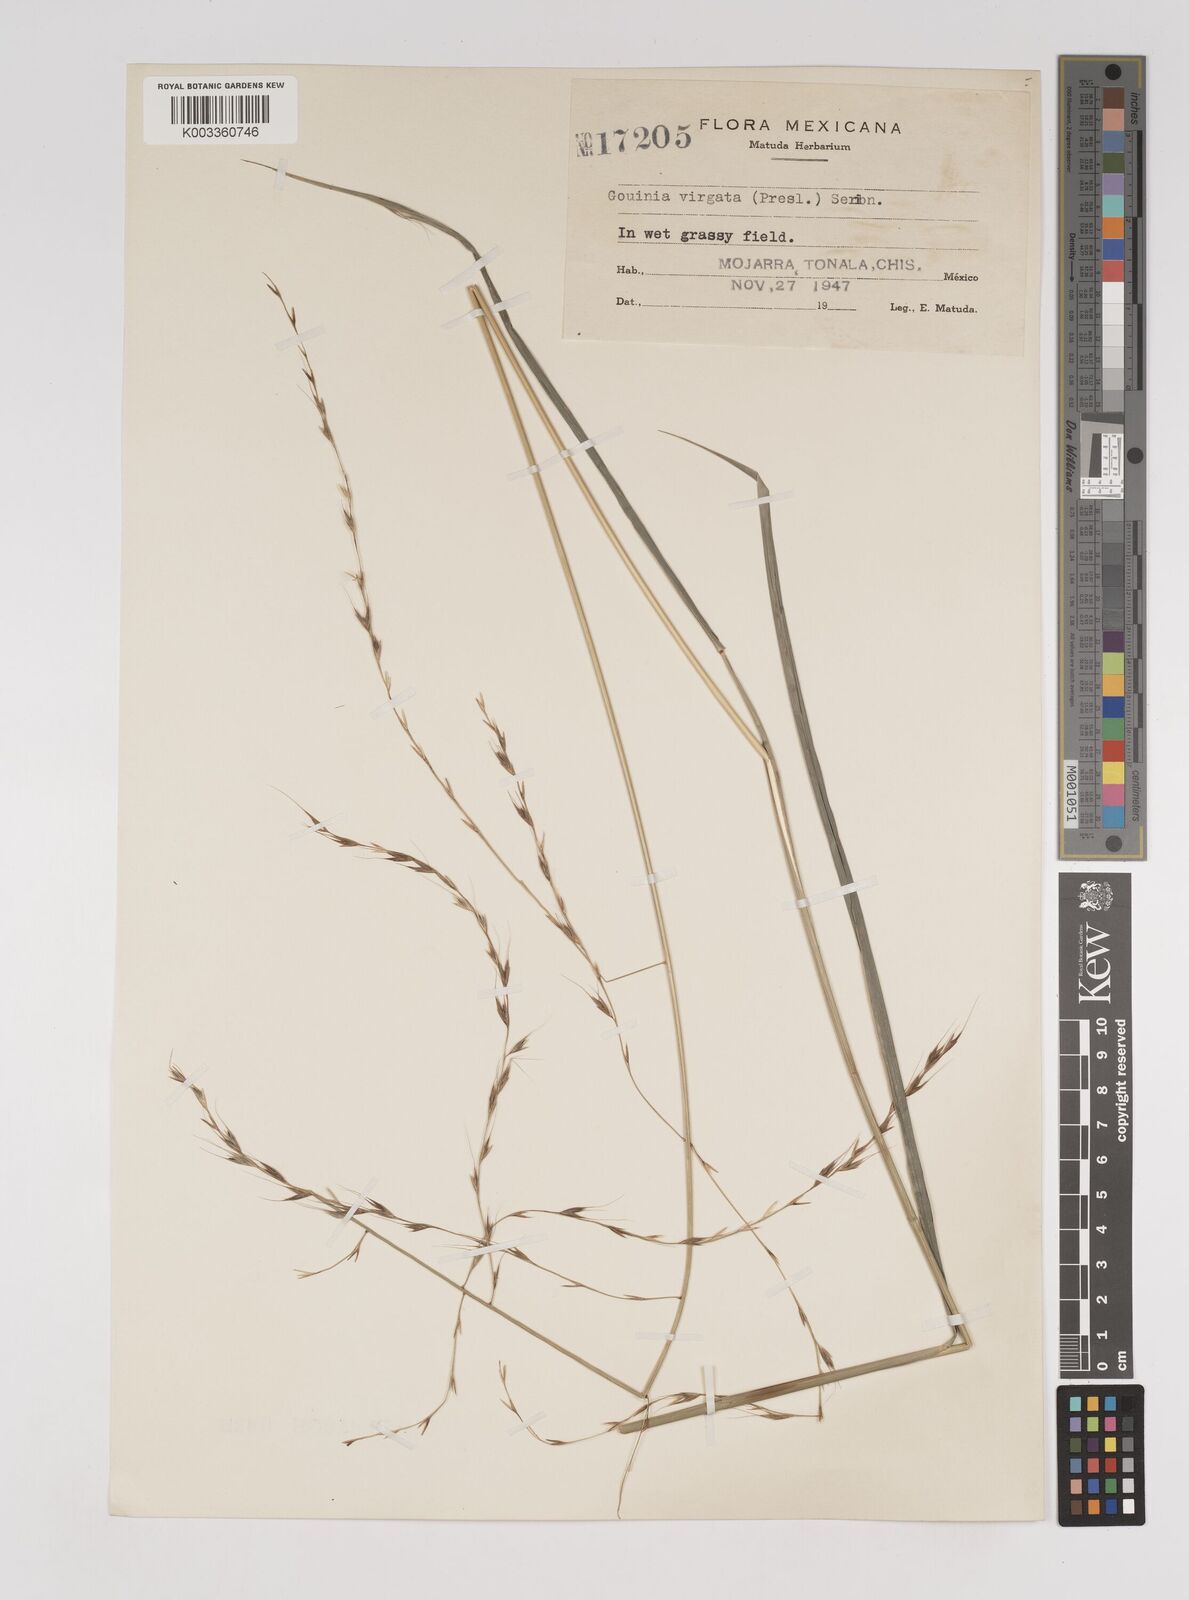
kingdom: Plantae
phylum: Tracheophyta
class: Liliopsida
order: Poales
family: Poaceae
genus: Gouinia
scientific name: Gouinia virgata
